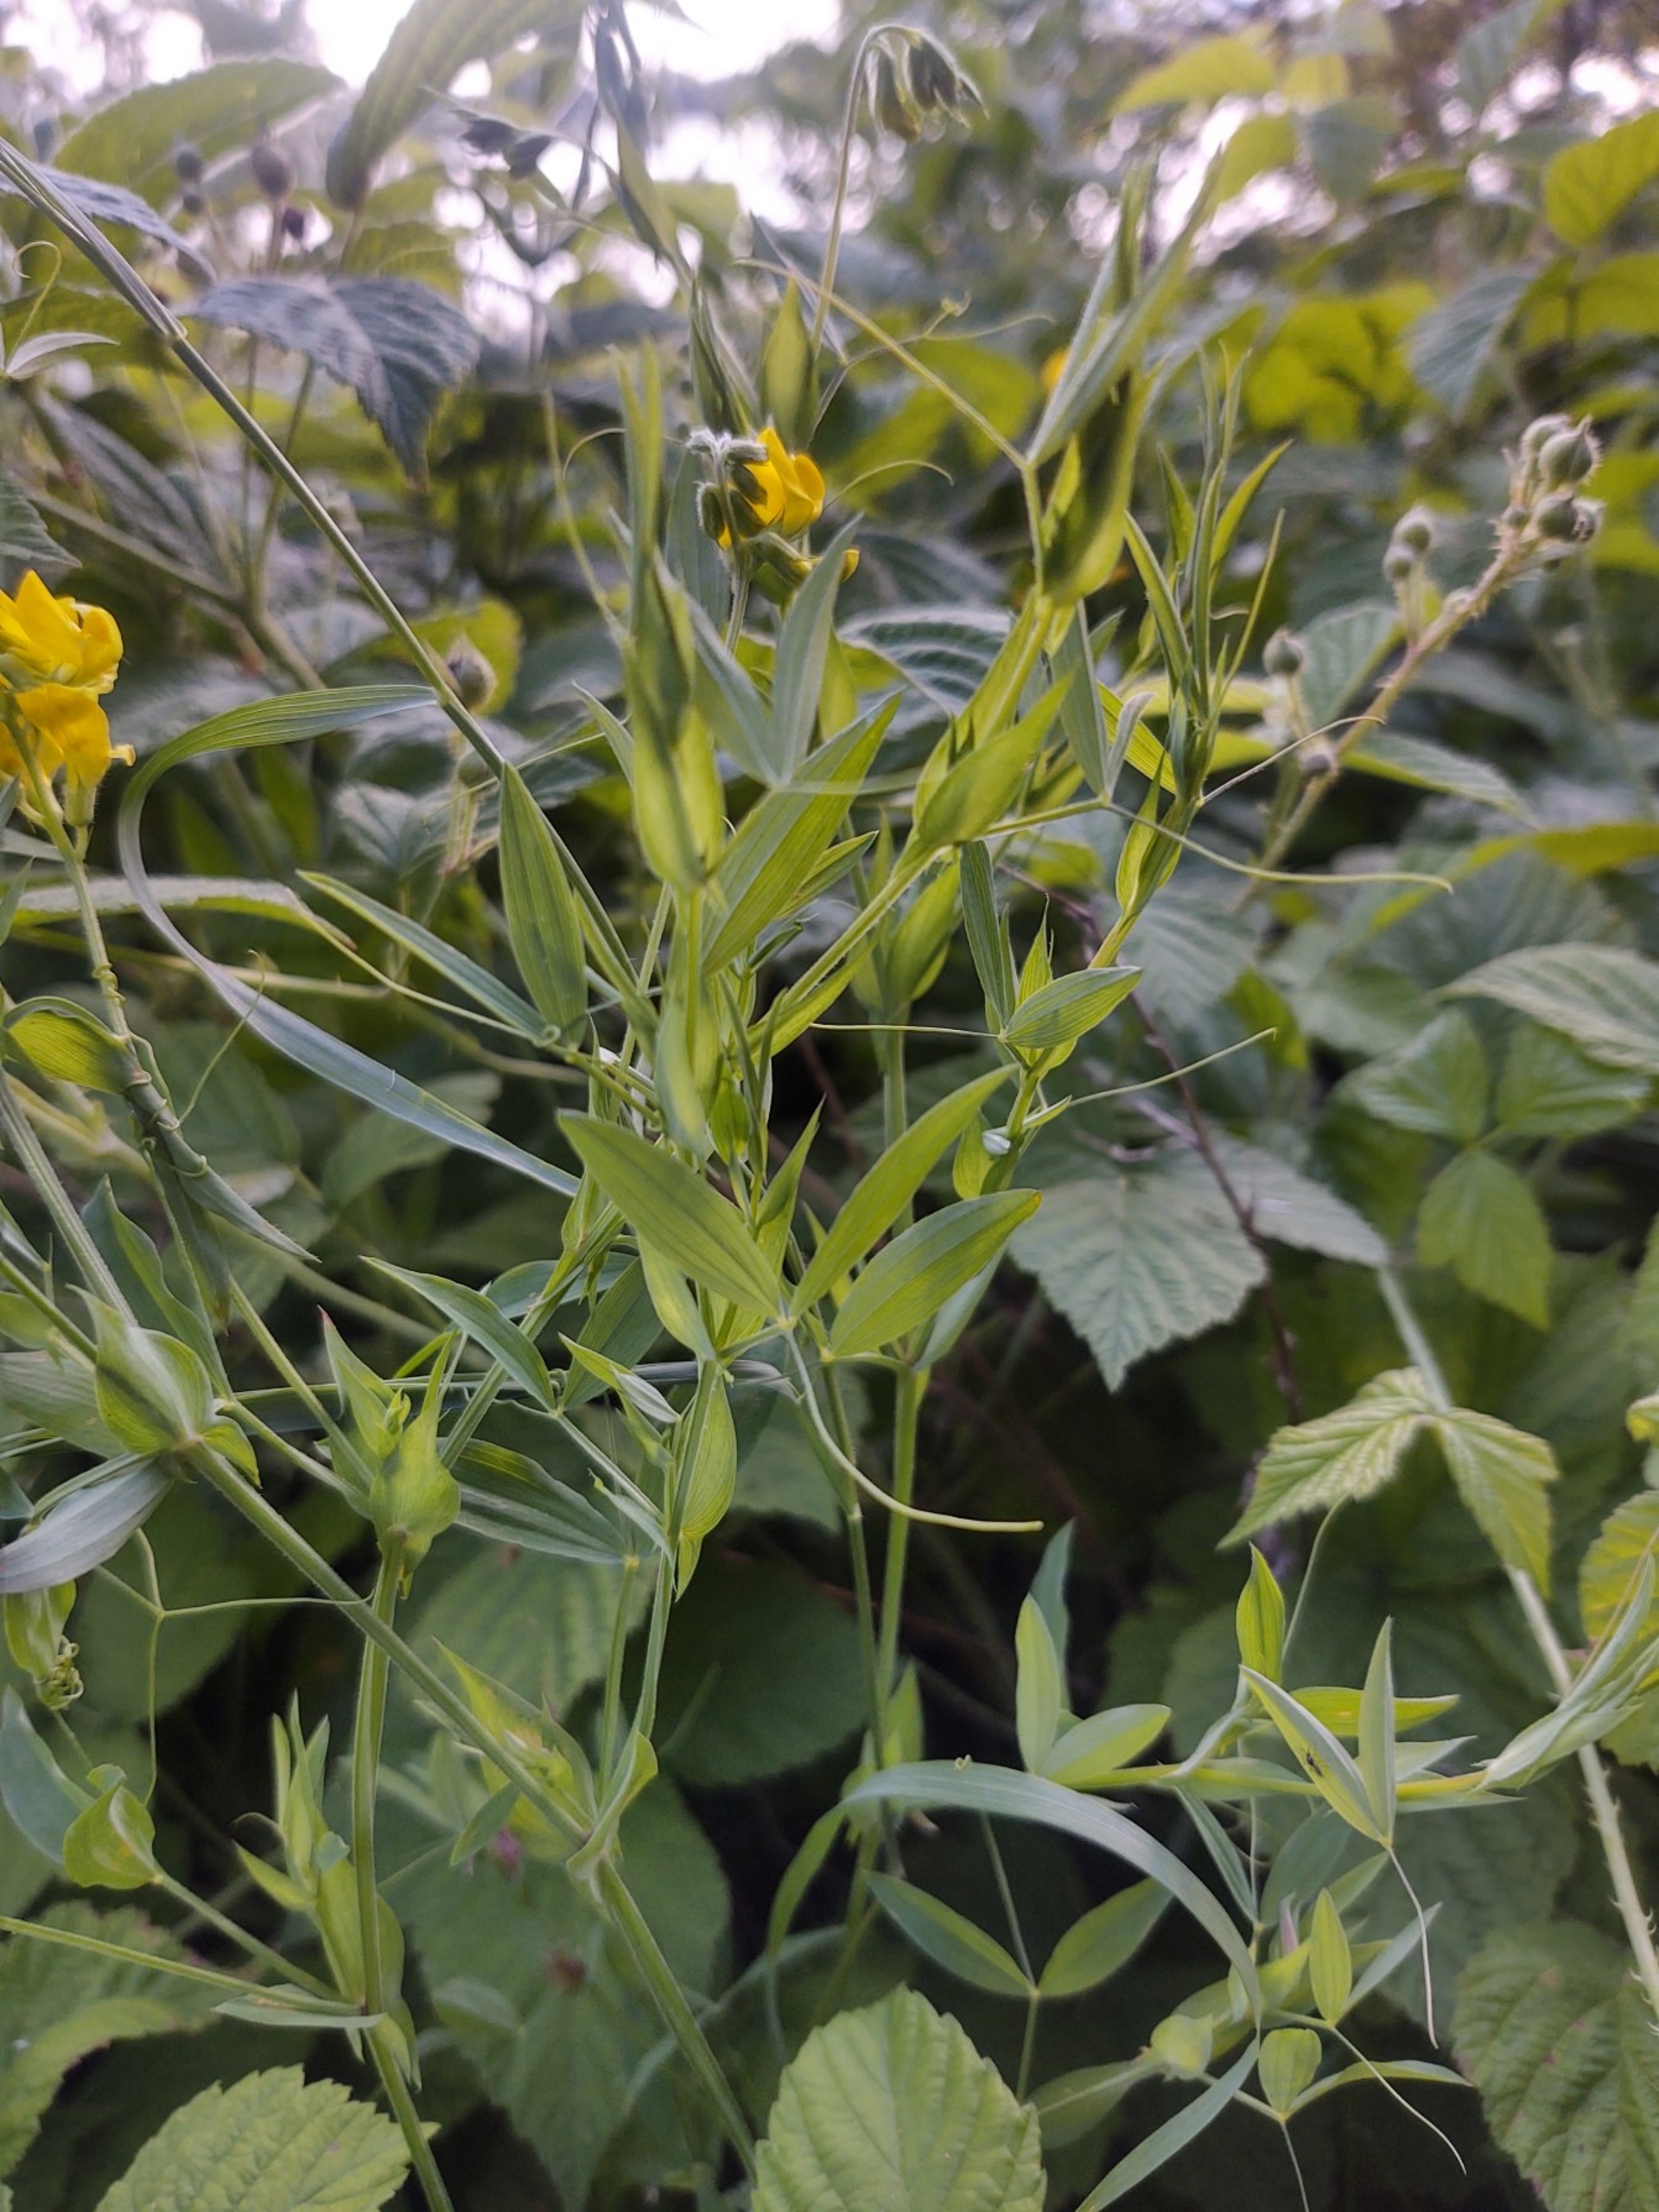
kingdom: Plantae
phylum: Tracheophyta
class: Magnoliopsida
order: Fabales
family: Fabaceae
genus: Lathyrus
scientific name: Lathyrus pratensis
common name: Gul fladbælg
